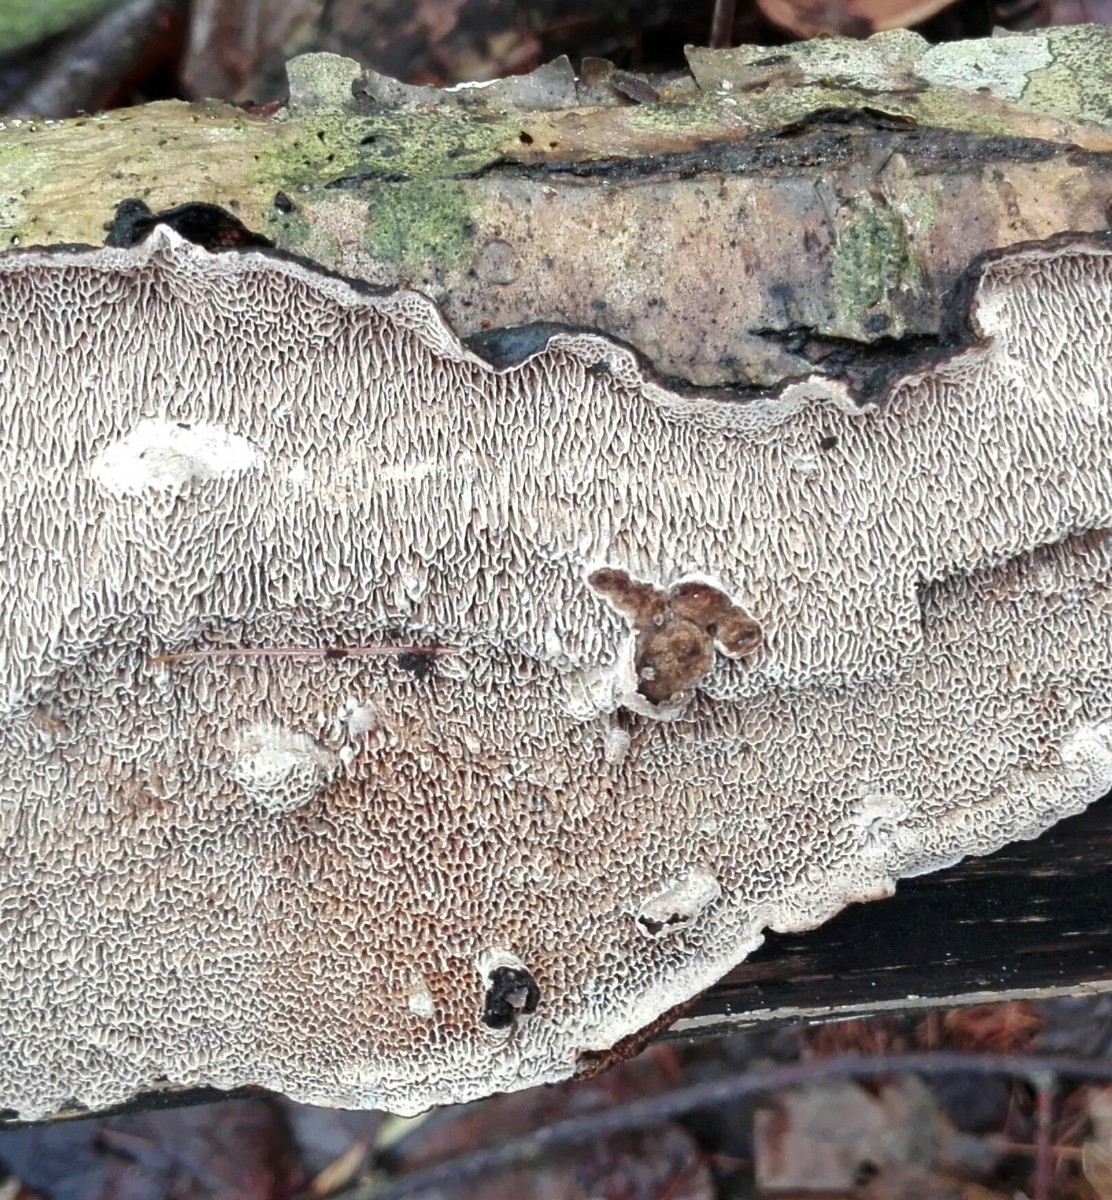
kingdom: Fungi
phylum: Basidiomycota
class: Agaricomycetes
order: Polyporales
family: Polyporaceae
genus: Podofomes
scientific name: Podofomes mollis
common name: blød begporesvamp
